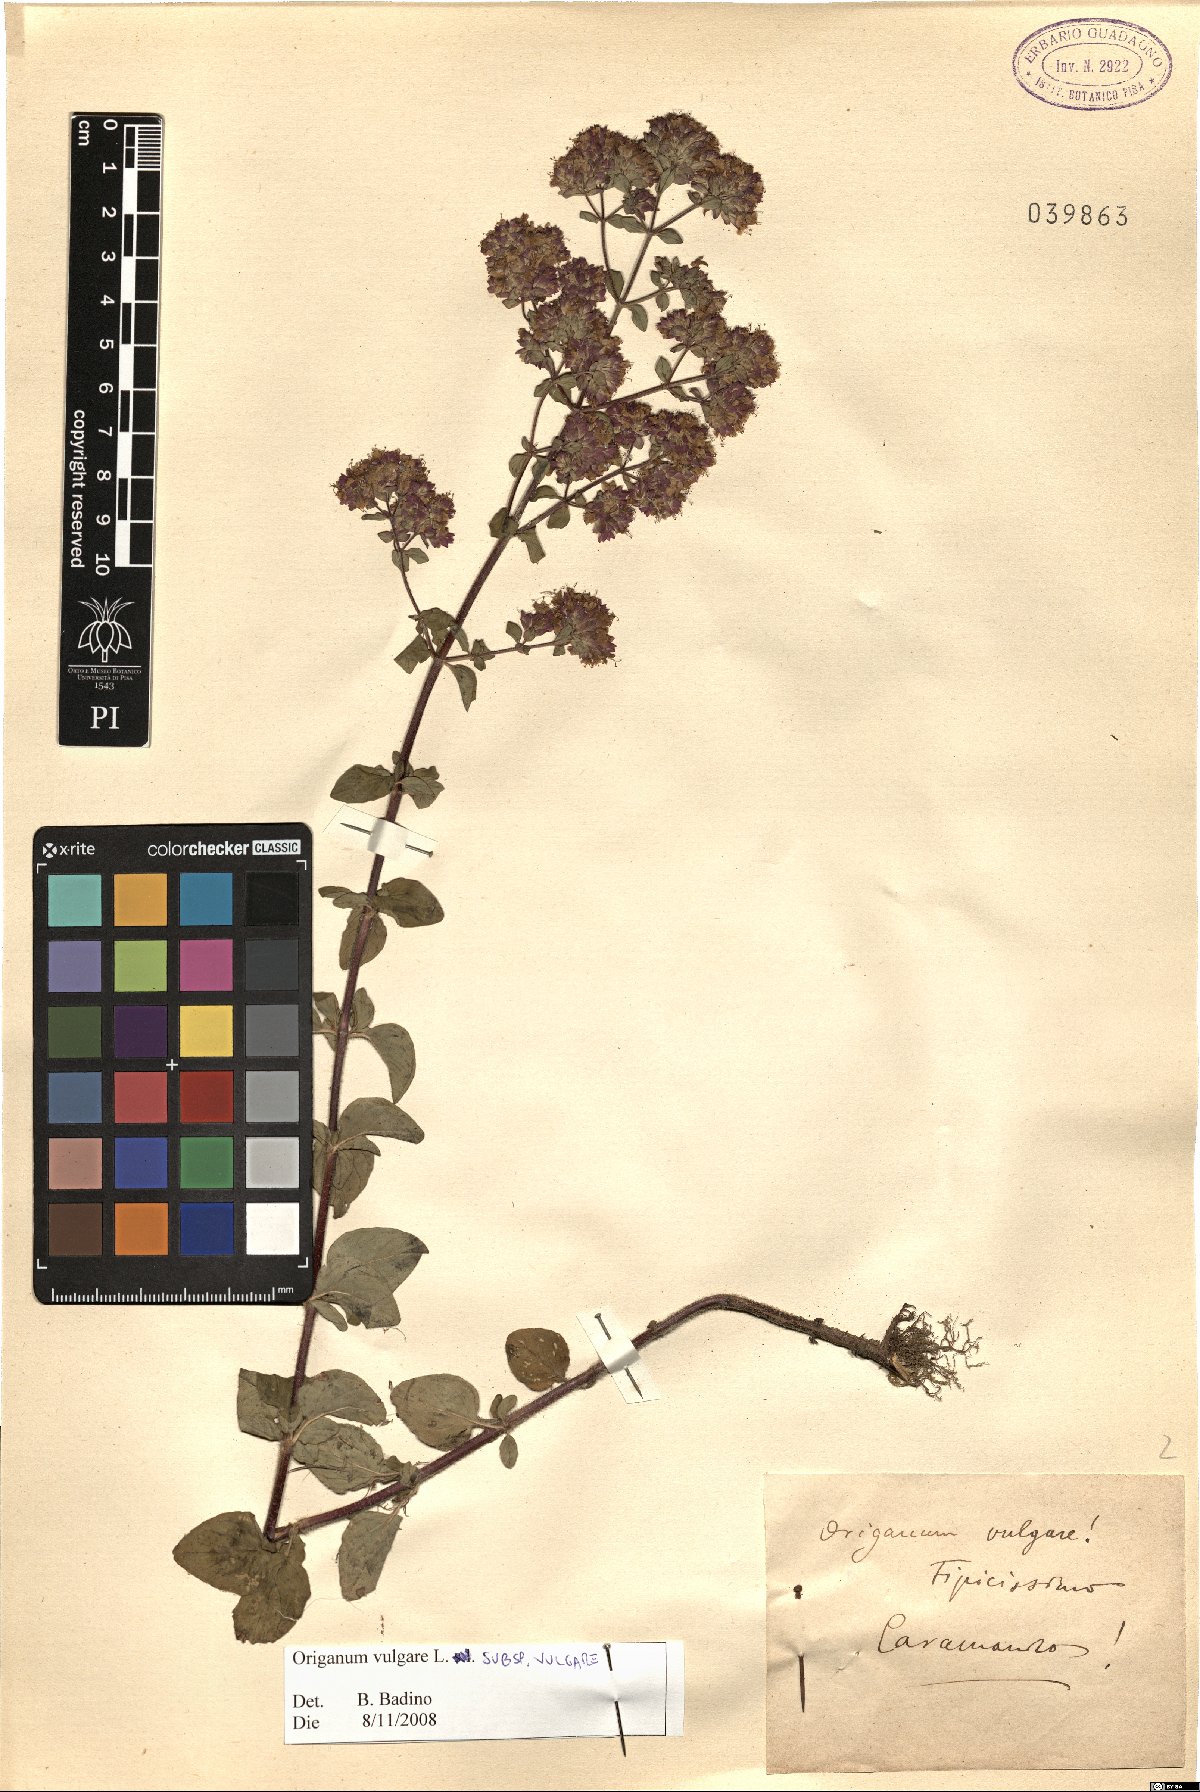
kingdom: Plantae
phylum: Tracheophyta
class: Magnoliopsida
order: Lamiales
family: Lamiaceae
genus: Origanum
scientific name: Origanum vulgare
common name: Wild marjoram
